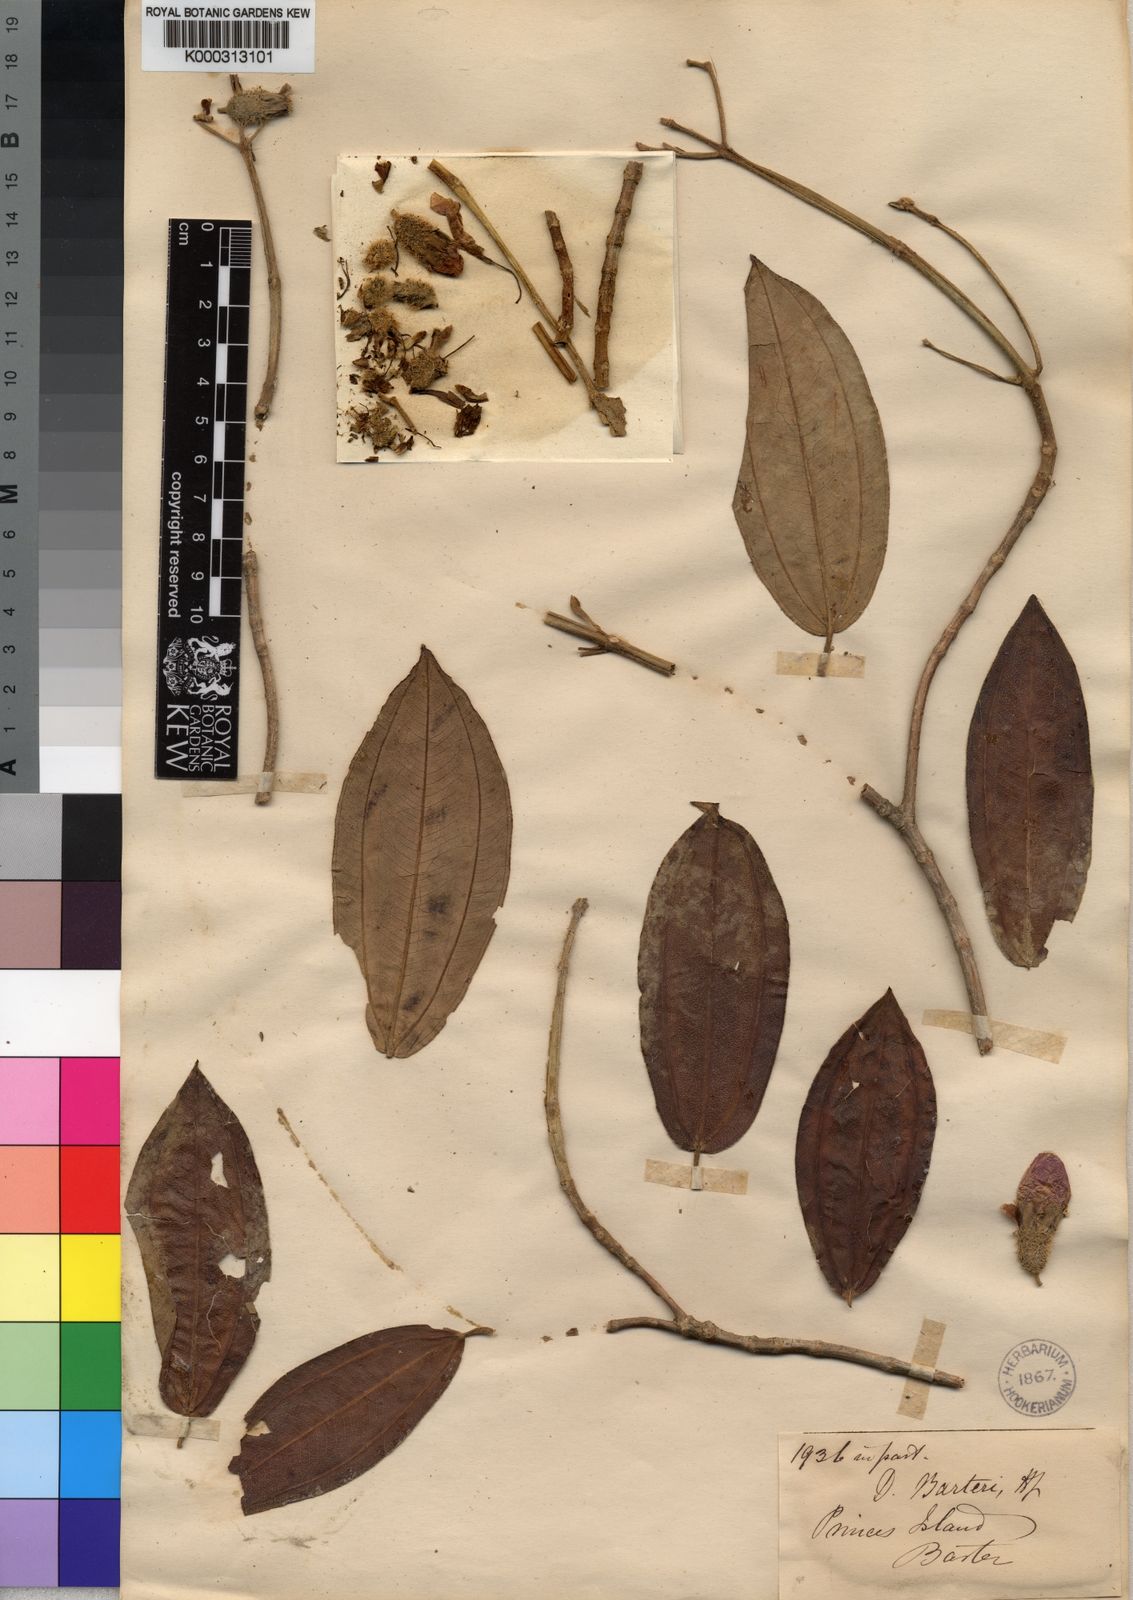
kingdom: Plantae
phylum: Tracheophyta
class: Magnoliopsida
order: Myrtales
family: Melastomataceae
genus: Nothodissotis
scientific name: Nothodissotis barteri
